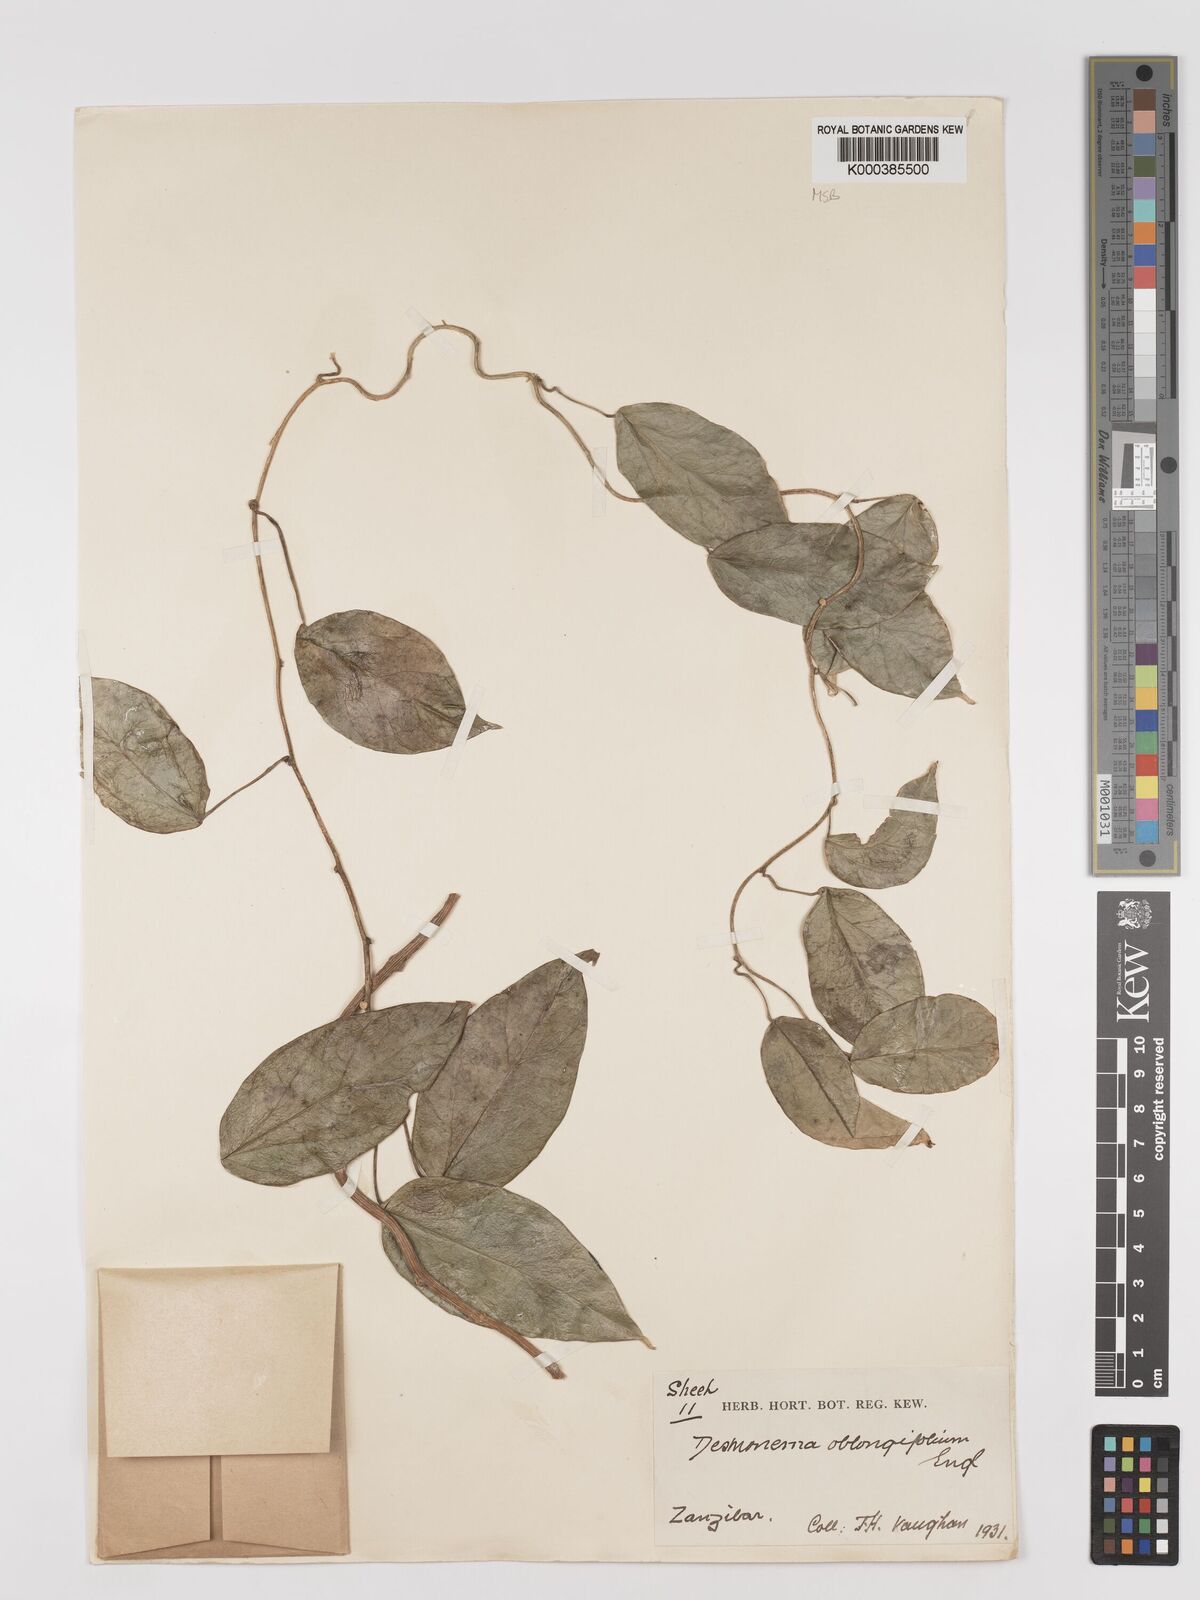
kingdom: Plantae
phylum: Tracheophyta
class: Magnoliopsida
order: Ranunculales
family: Menispermaceae
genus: Tinospora
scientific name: Tinospora oblongifolia
